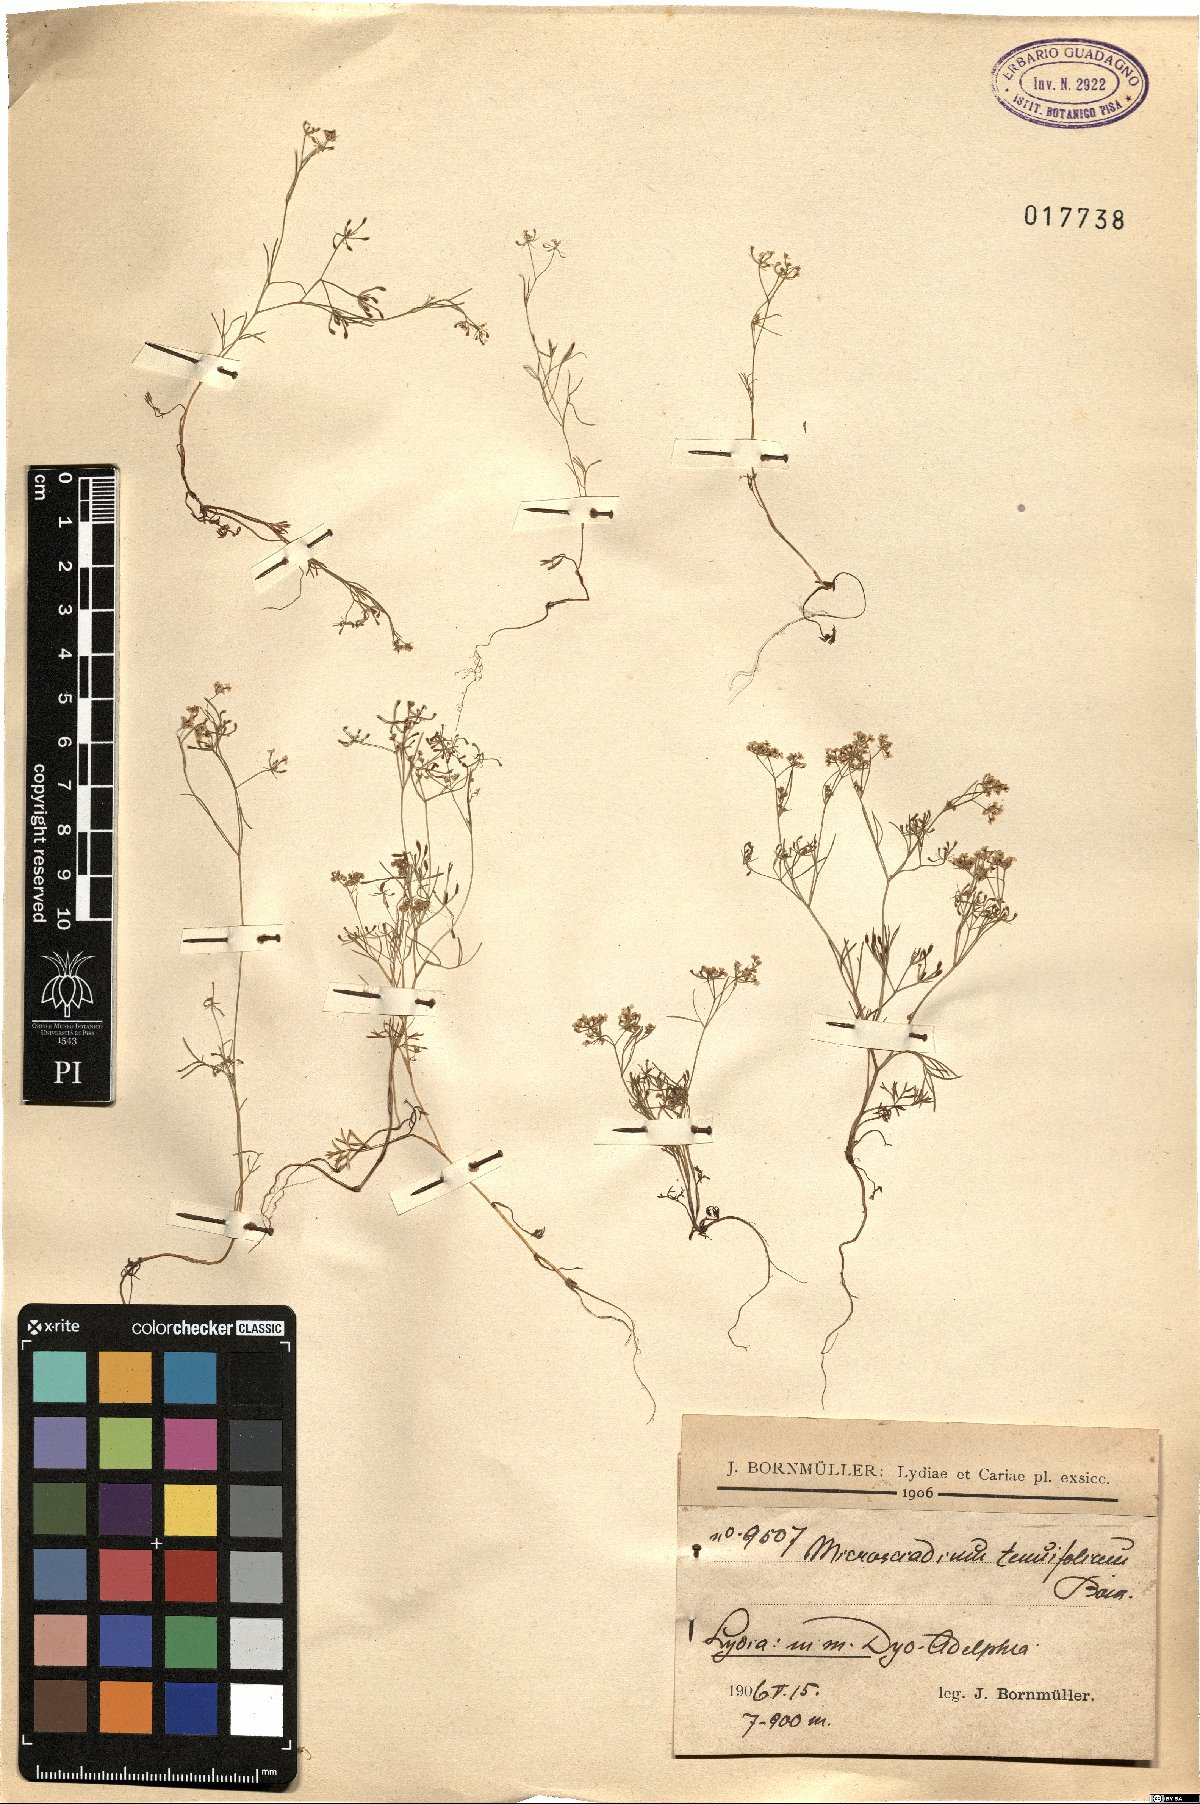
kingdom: Plantae
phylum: Tracheophyta
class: Magnoliopsida
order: Apiales
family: Apiaceae
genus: Microsciadium
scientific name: Microsciadium minutum
